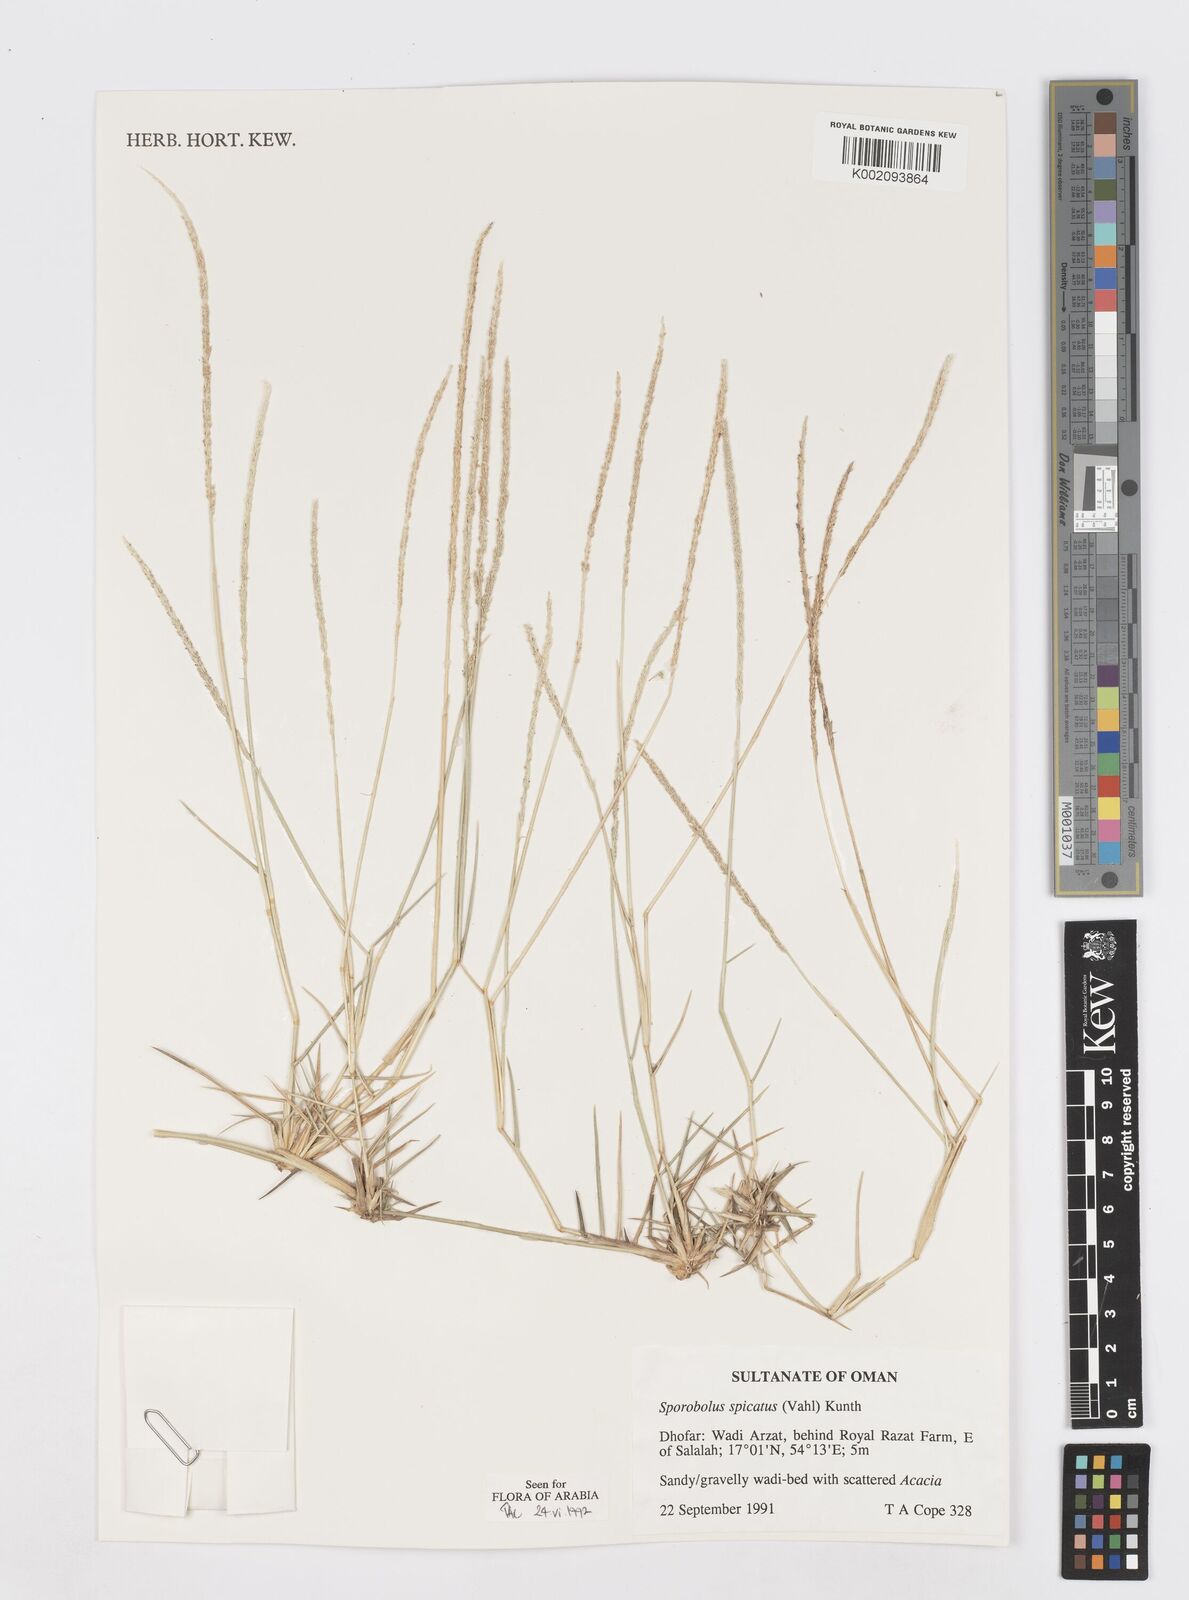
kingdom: Plantae
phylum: Tracheophyta
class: Liliopsida
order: Poales
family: Poaceae
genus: Sporobolus
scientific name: Sporobolus spicatus
